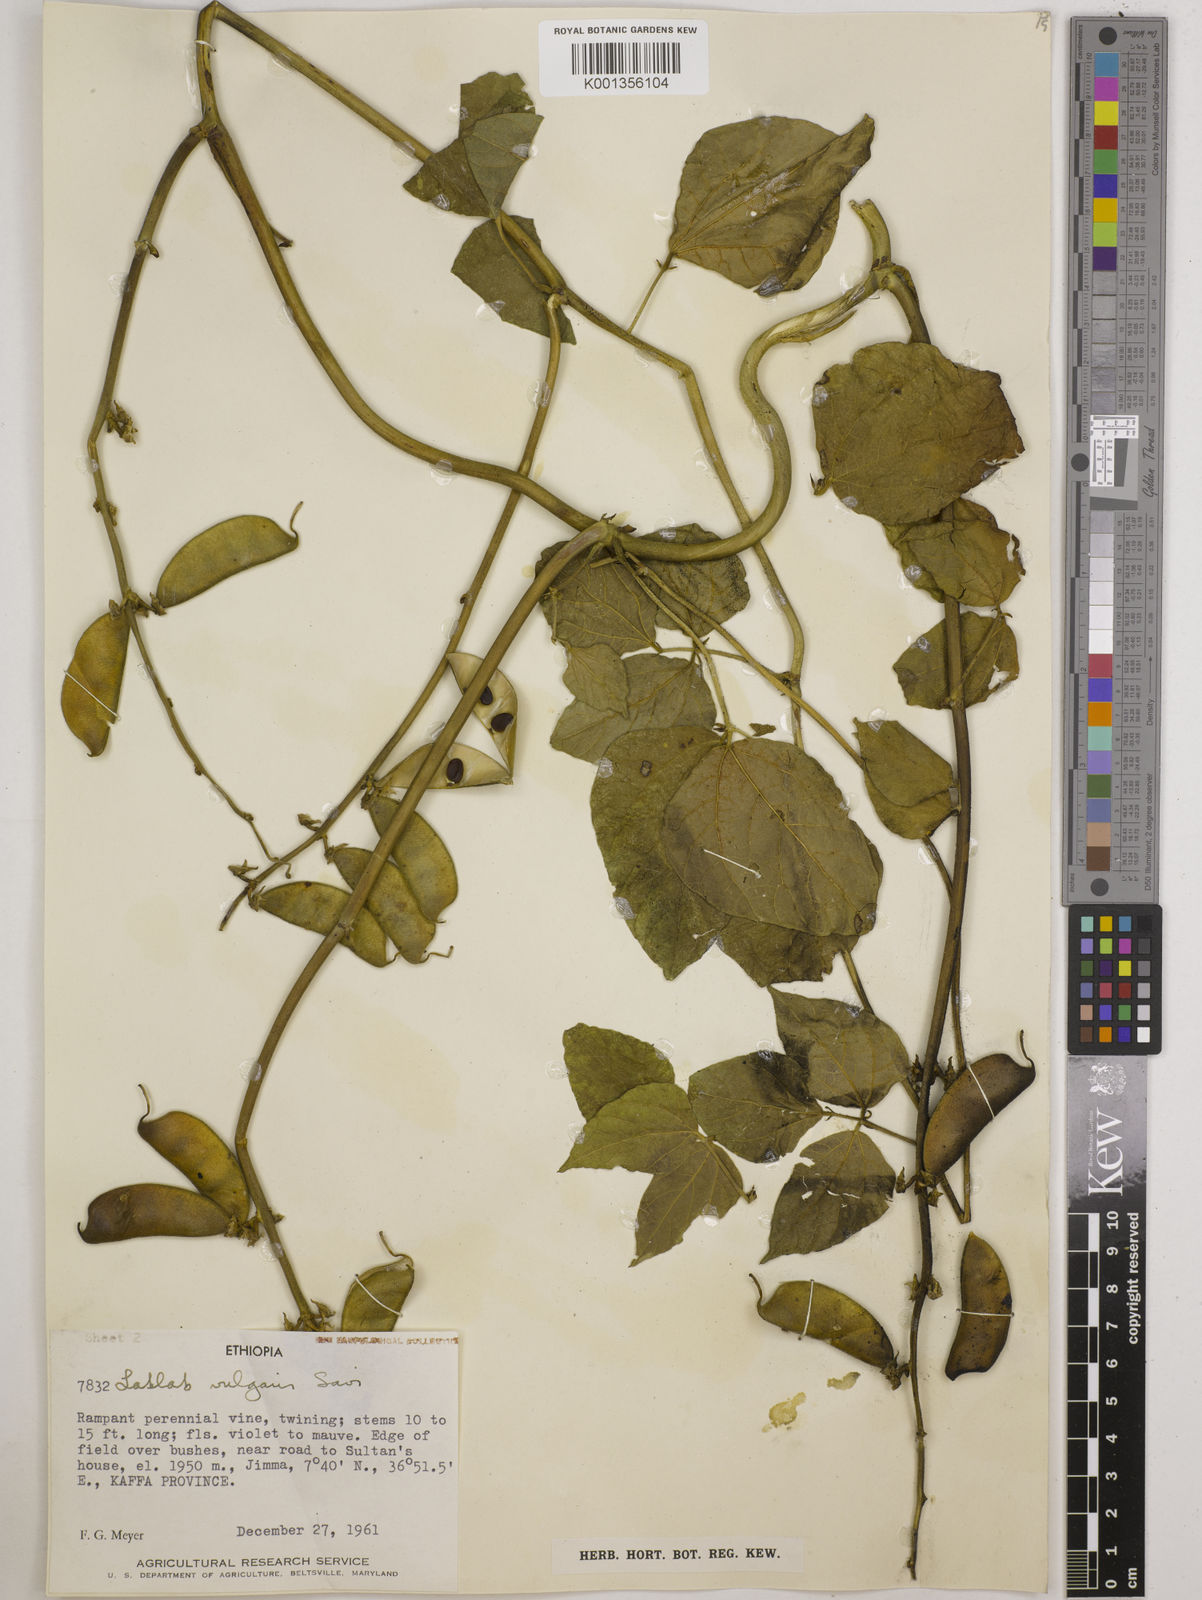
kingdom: Plantae
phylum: Tracheophyta
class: Magnoliopsida
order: Fabales
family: Fabaceae
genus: Lablab
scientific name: Lablab purpureus
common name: Lablab-bean
